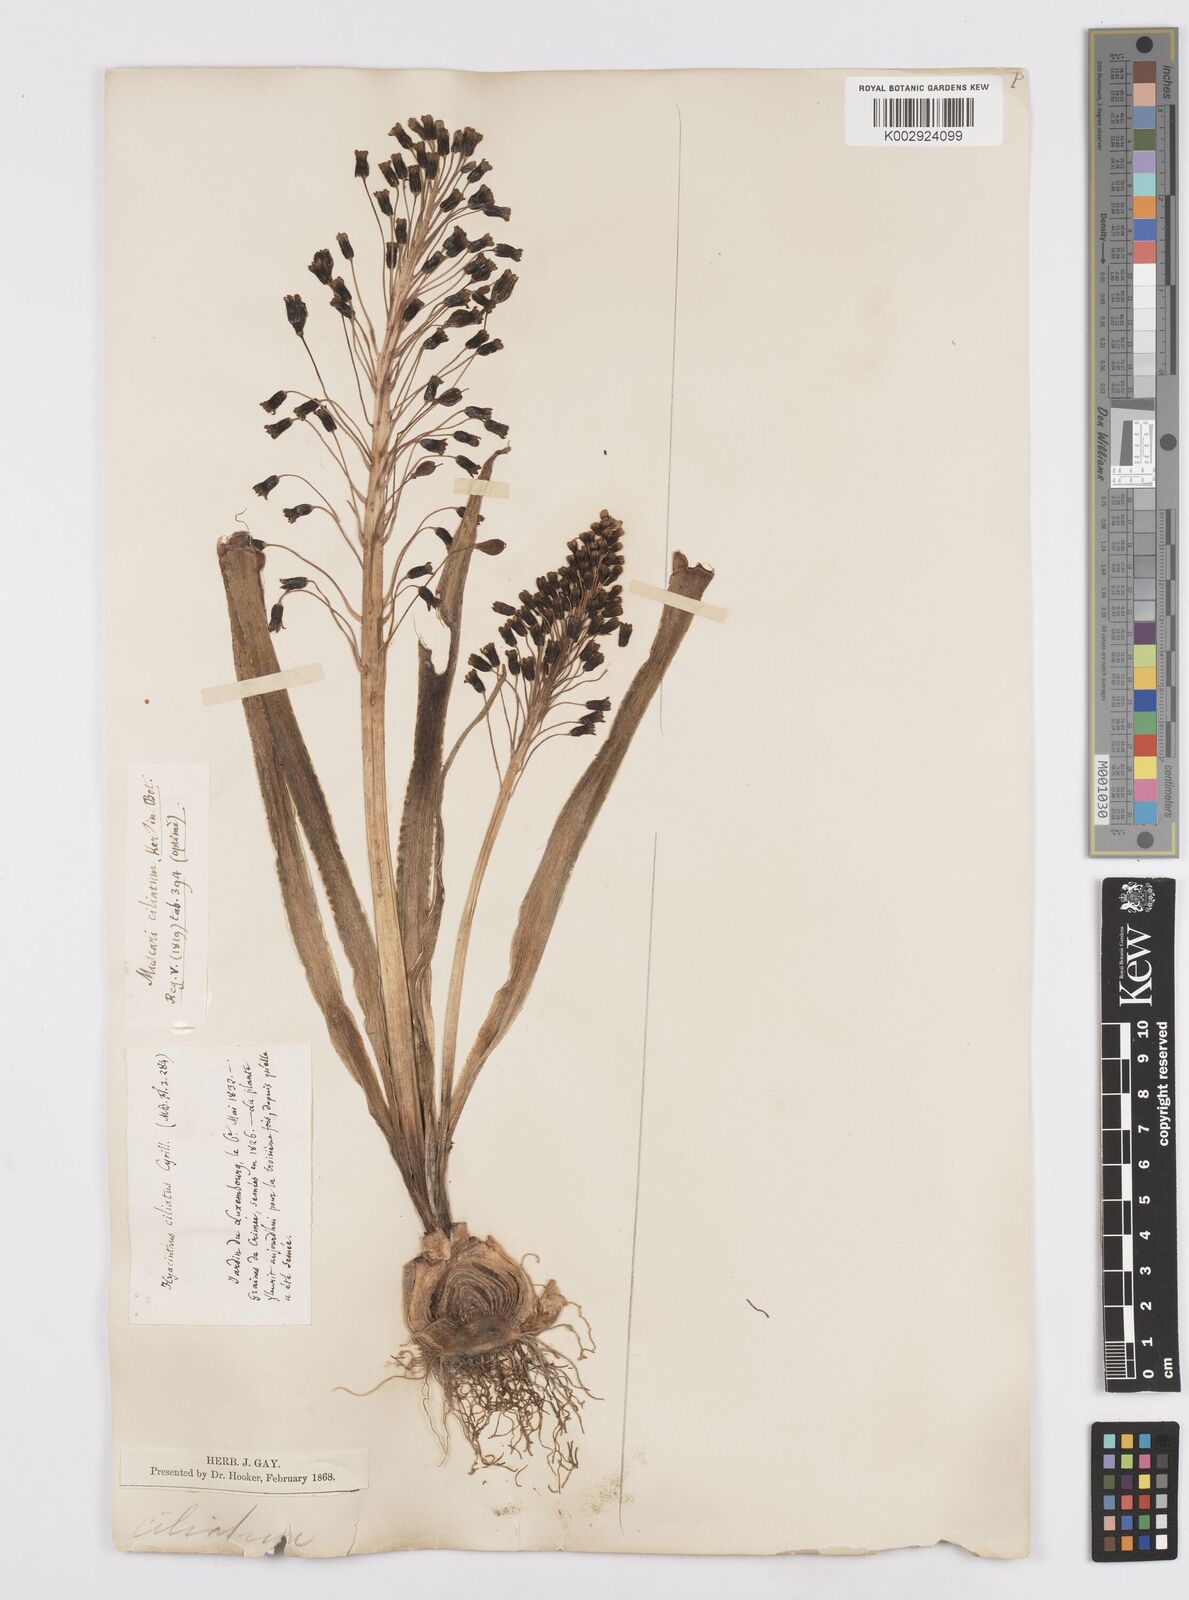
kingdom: Plantae
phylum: Tracheophyta
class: Liliopsida
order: Asparagales
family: Asparagaceae
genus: Bellevalia
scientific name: Bellevalia ciliata
